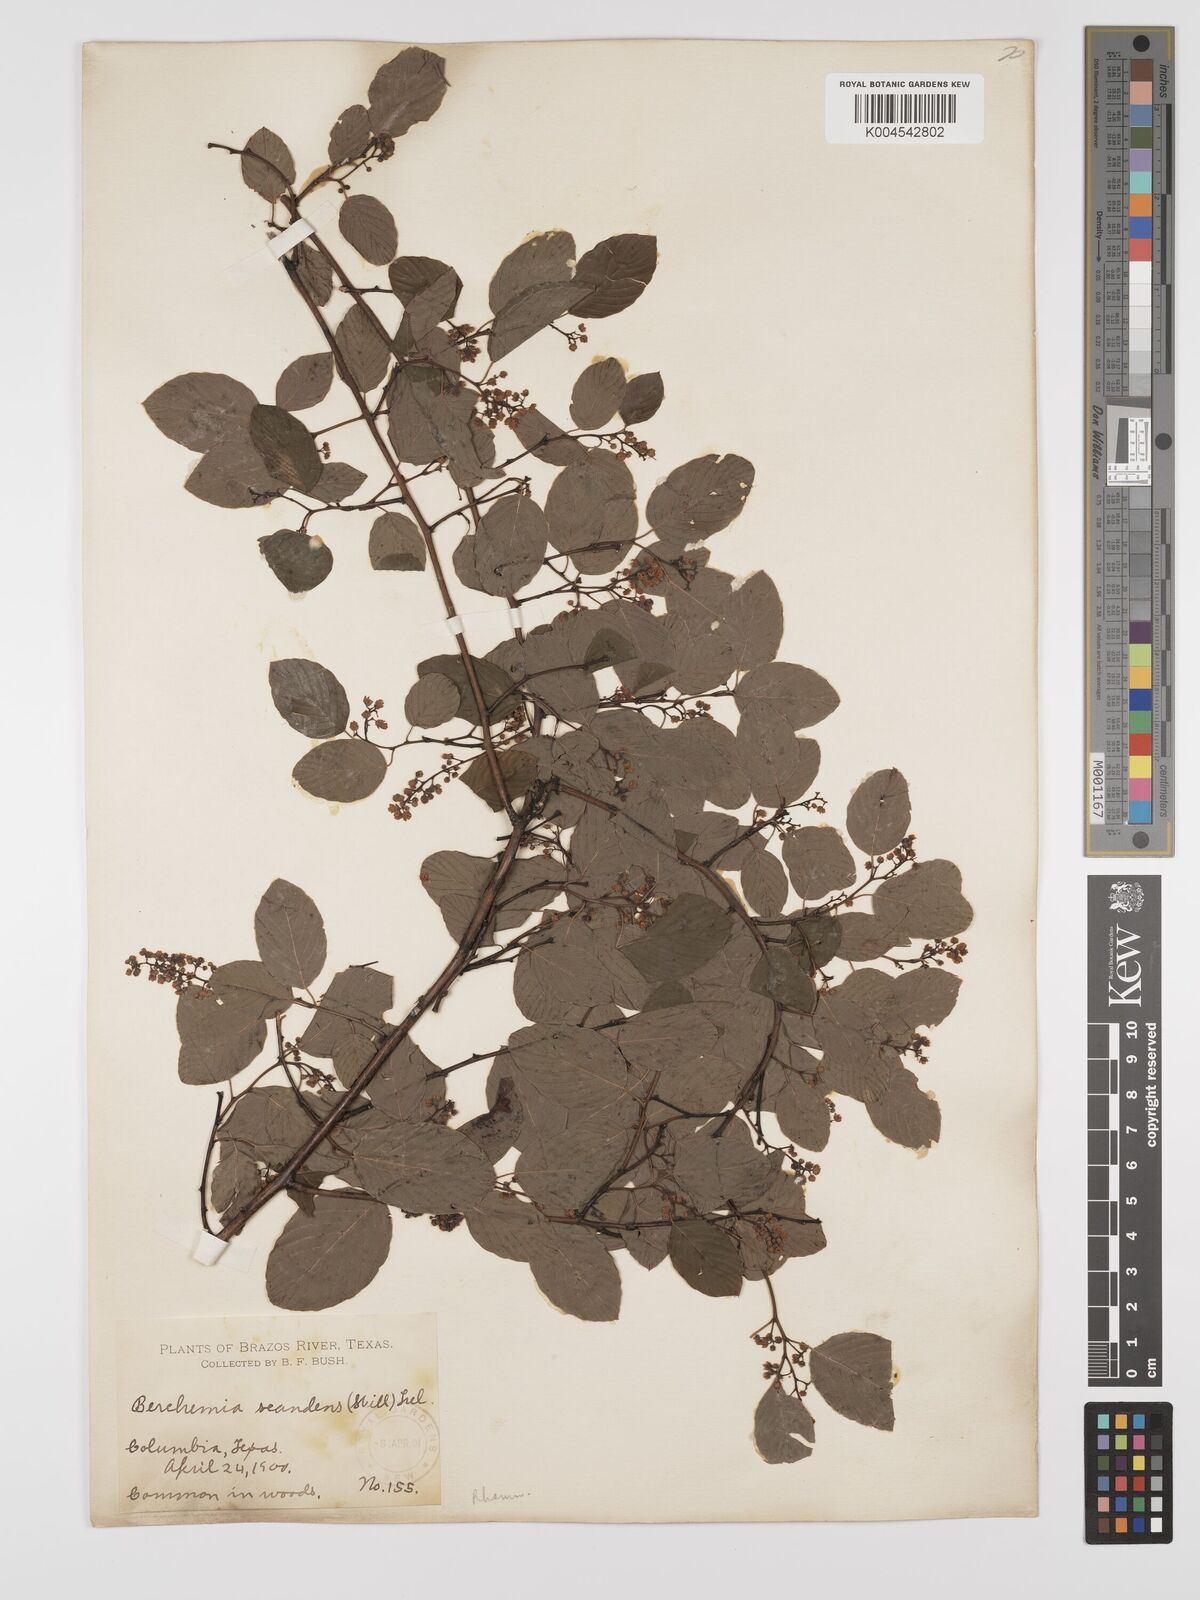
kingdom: Plantae
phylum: Tracheophyta
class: Magnoliopsida
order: Rosales
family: Rhamnaceae
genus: Berchemia
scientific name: Berchemia scandens
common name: Supplejack
